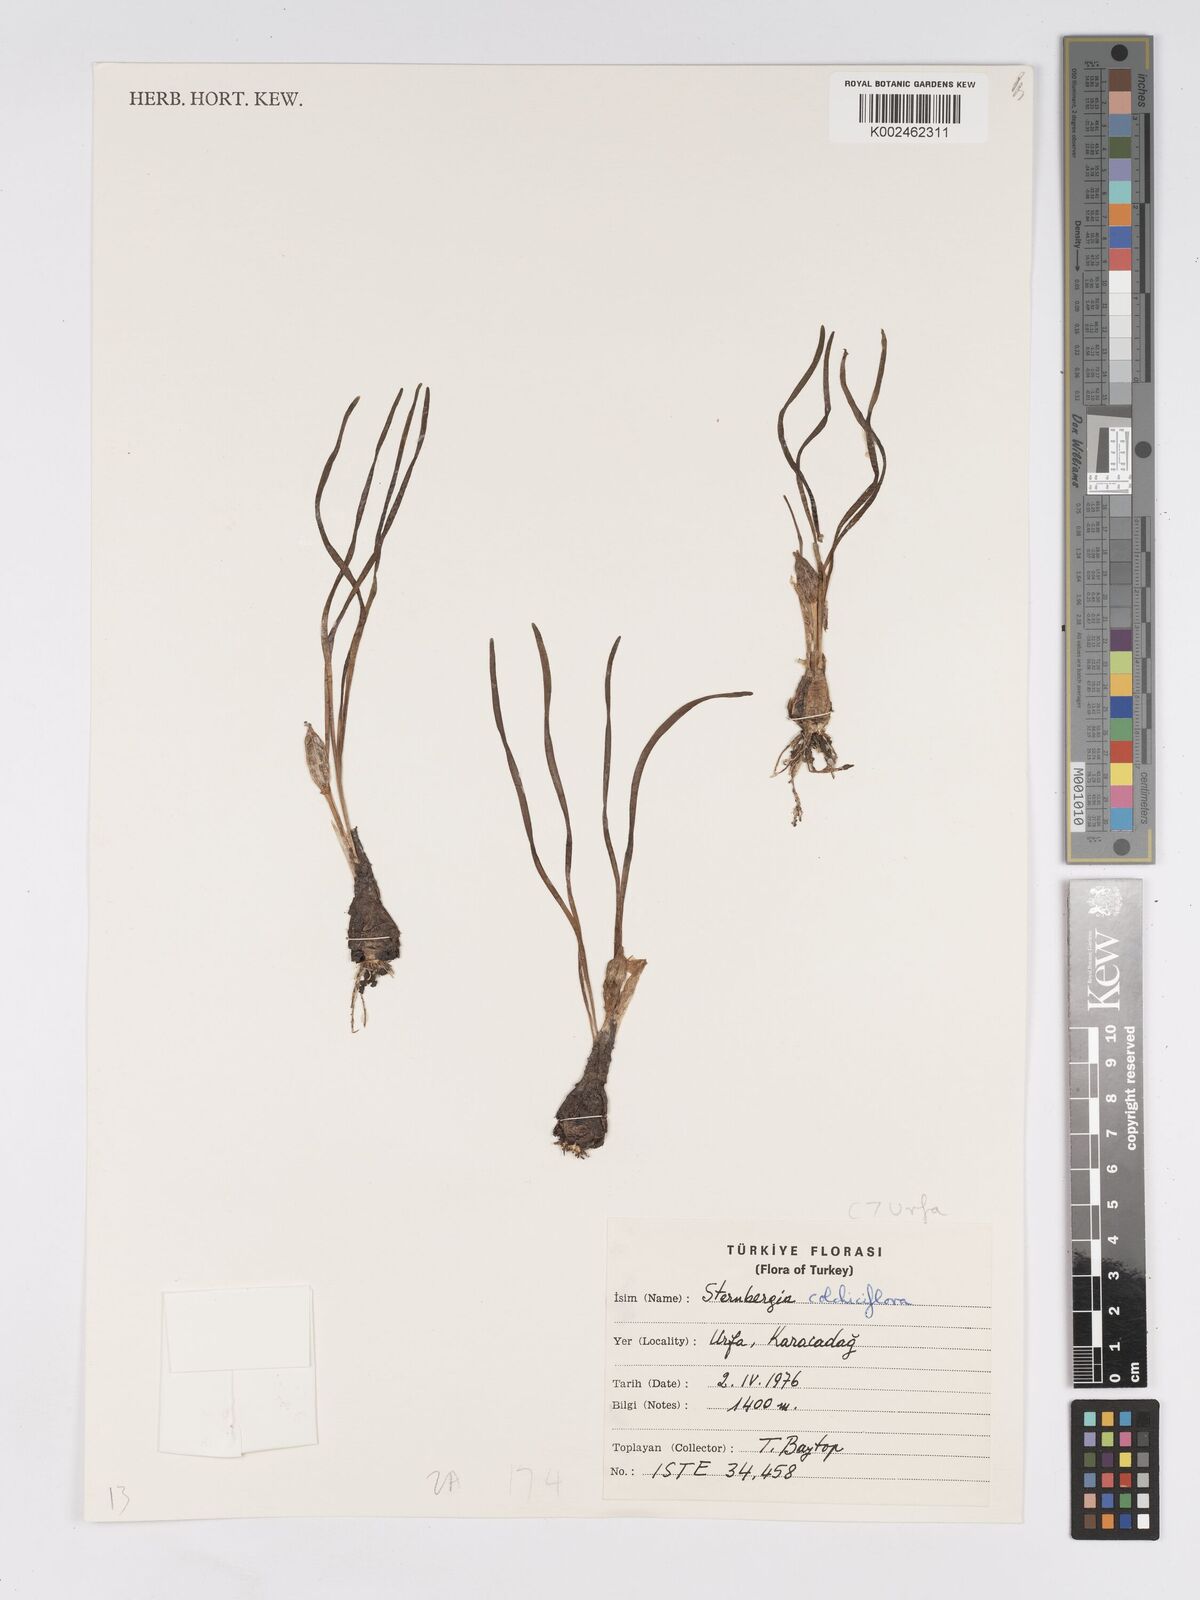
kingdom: Plantae
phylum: Tracheophyta
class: Liliopsida
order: Asparagales
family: Amaryllidaceae
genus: Sternbergia
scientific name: Sternbergia colchiciflora
